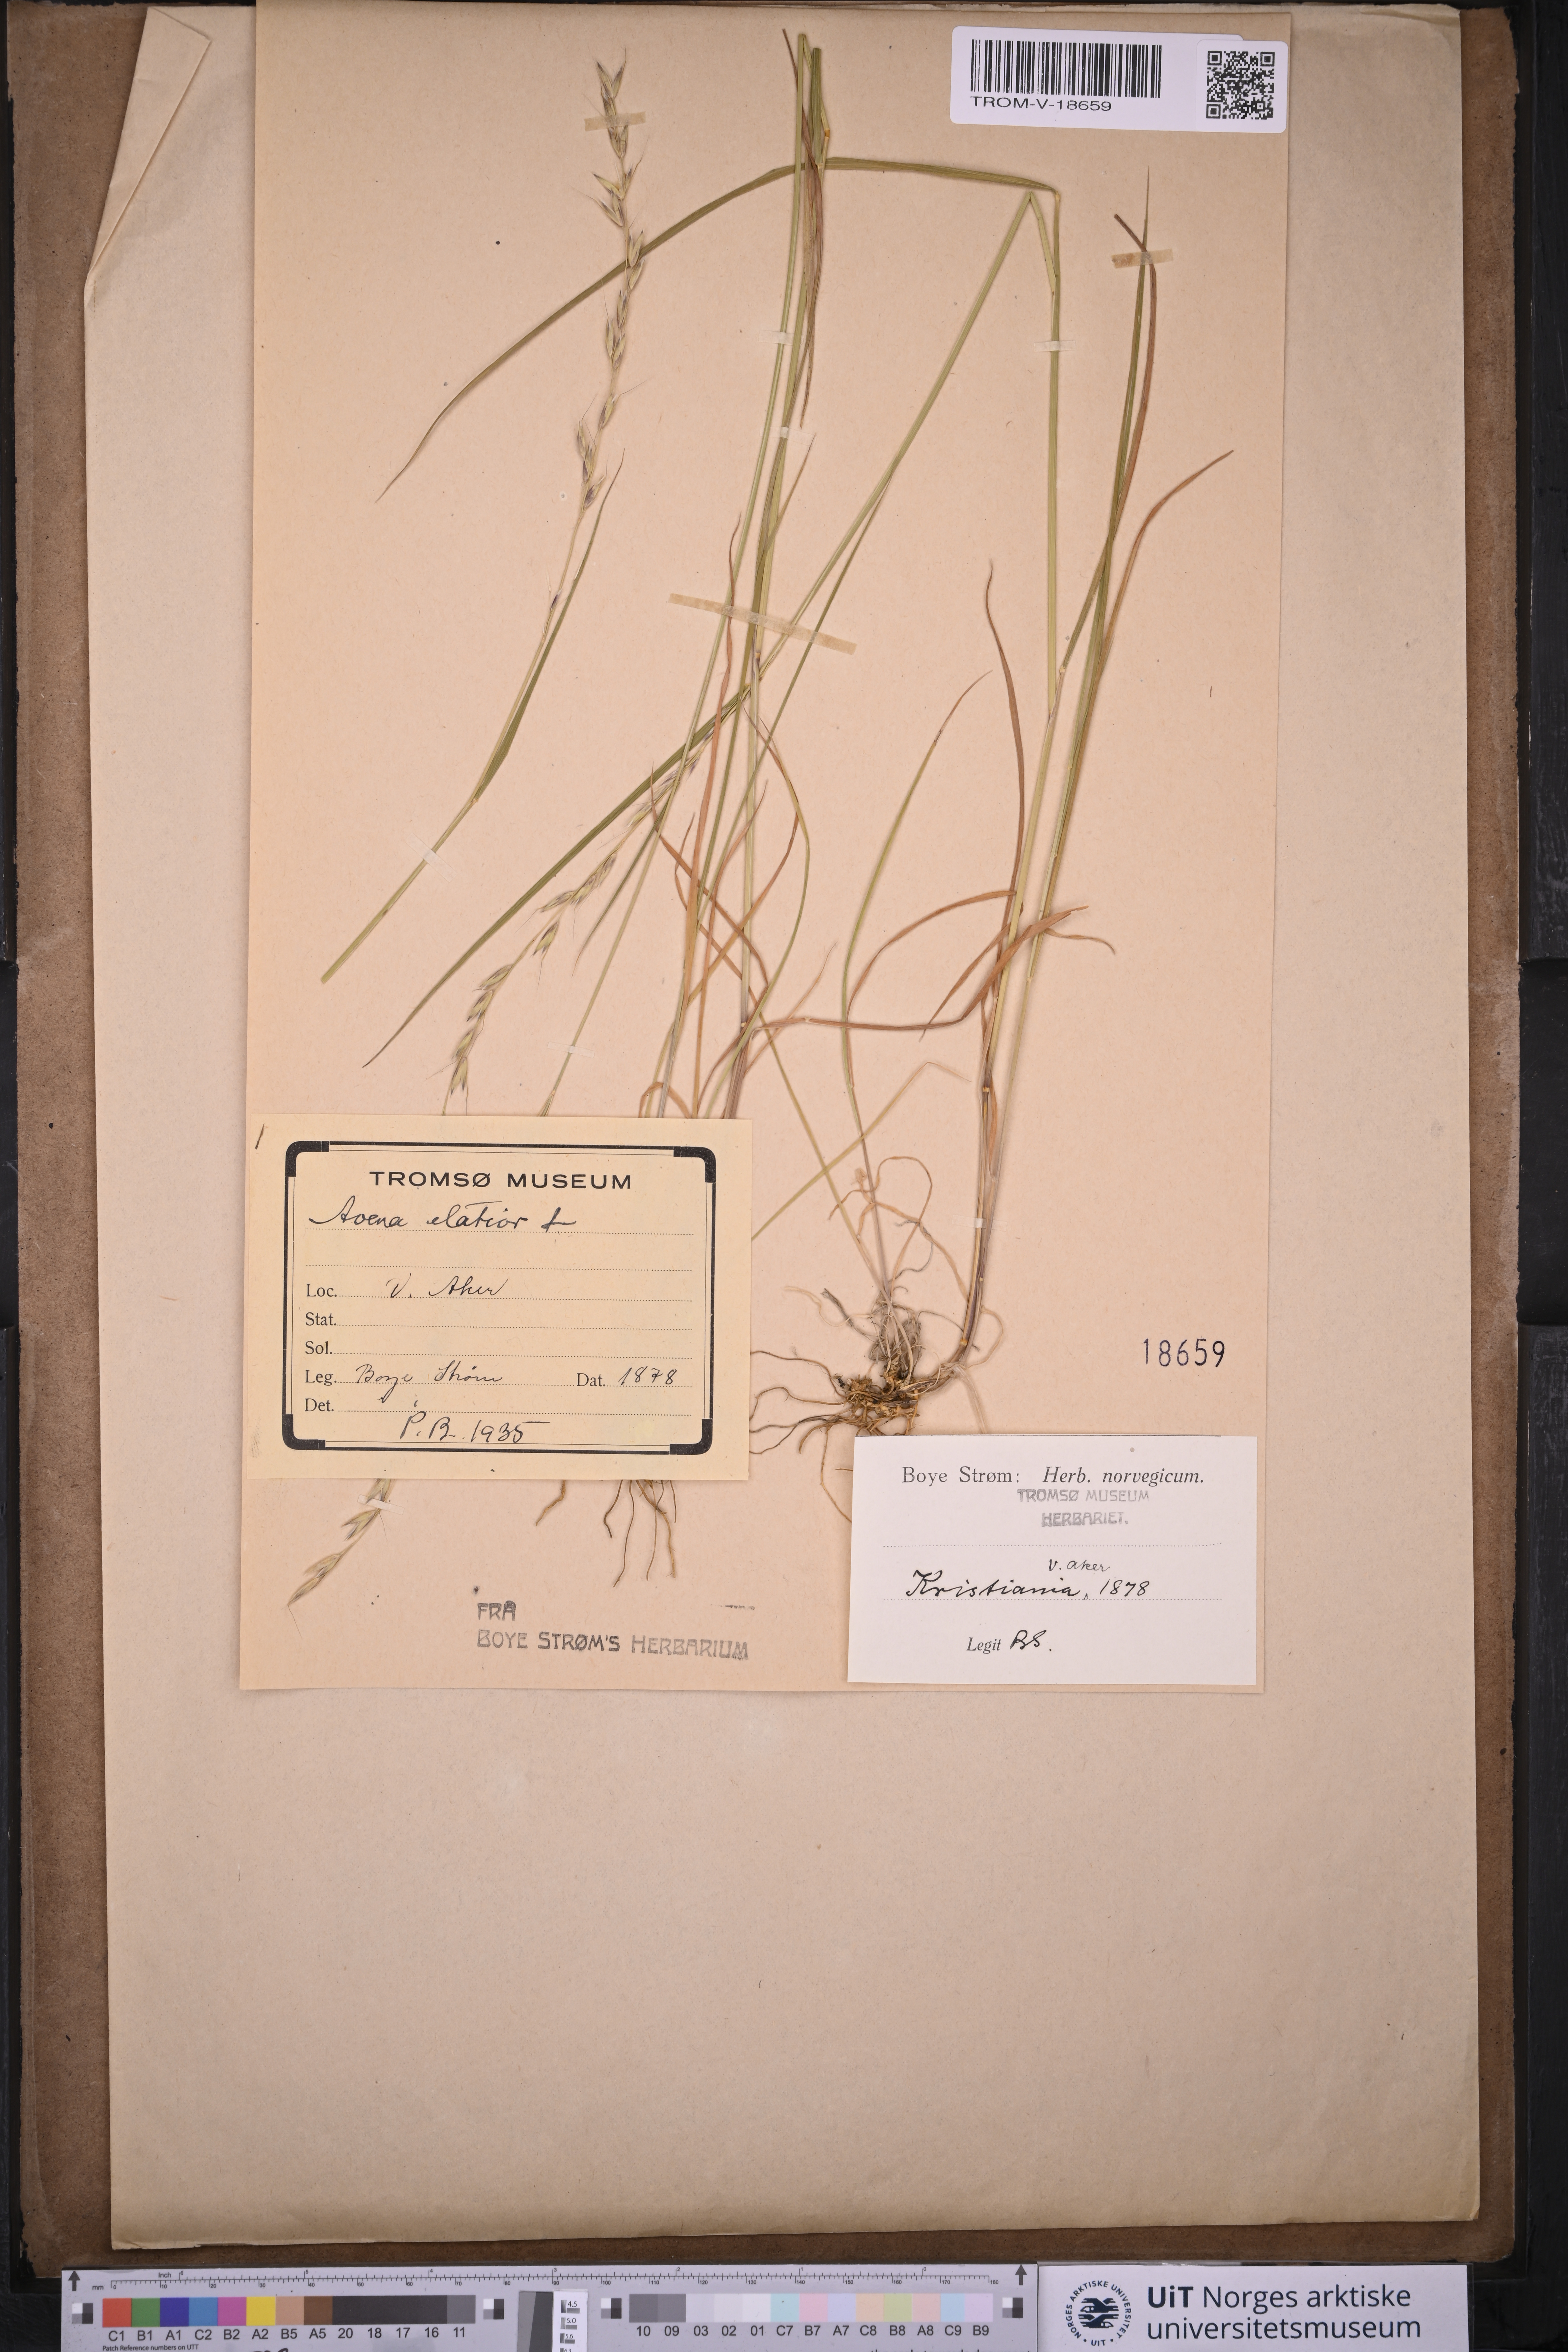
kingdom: Plantae
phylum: Tracheophyta
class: Liliopsida
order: Poales
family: Poaceae
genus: Arrhenatherum
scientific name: Arrhenatherum elatius
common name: Tall oatgrass
